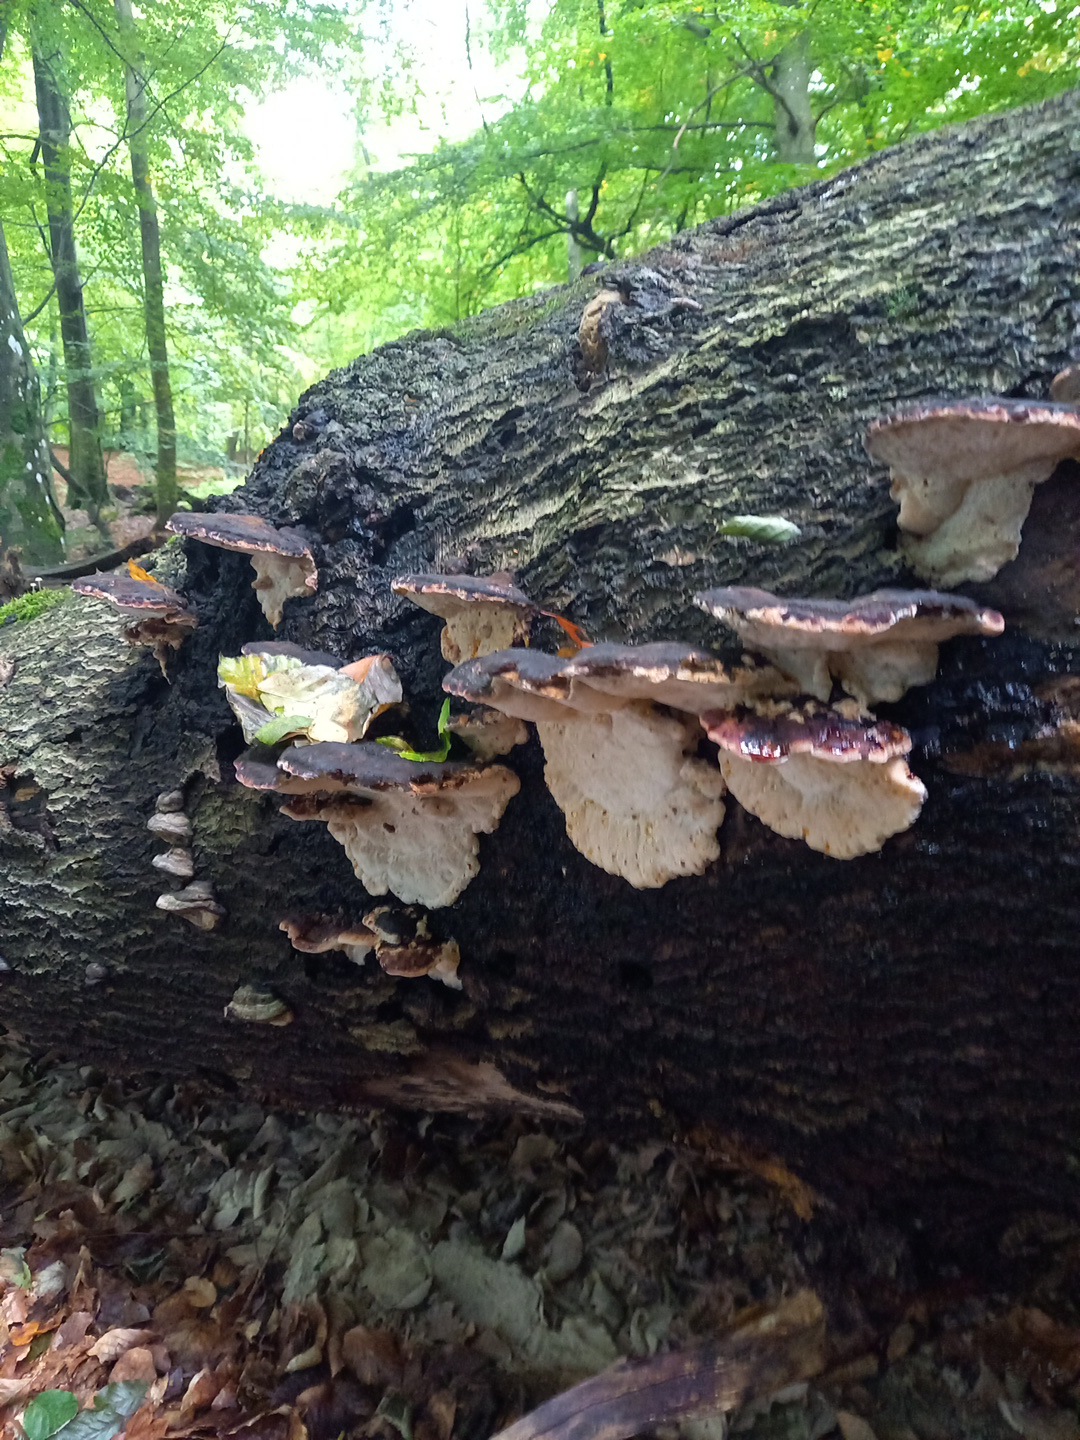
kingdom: Fungi
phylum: Basidiomycota
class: Agaricomycetes
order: Polyporales
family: Ischnodermataceae
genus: Ischnoderma
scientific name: Ischnoderma resinosum
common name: løv-tjæreporesvamp
